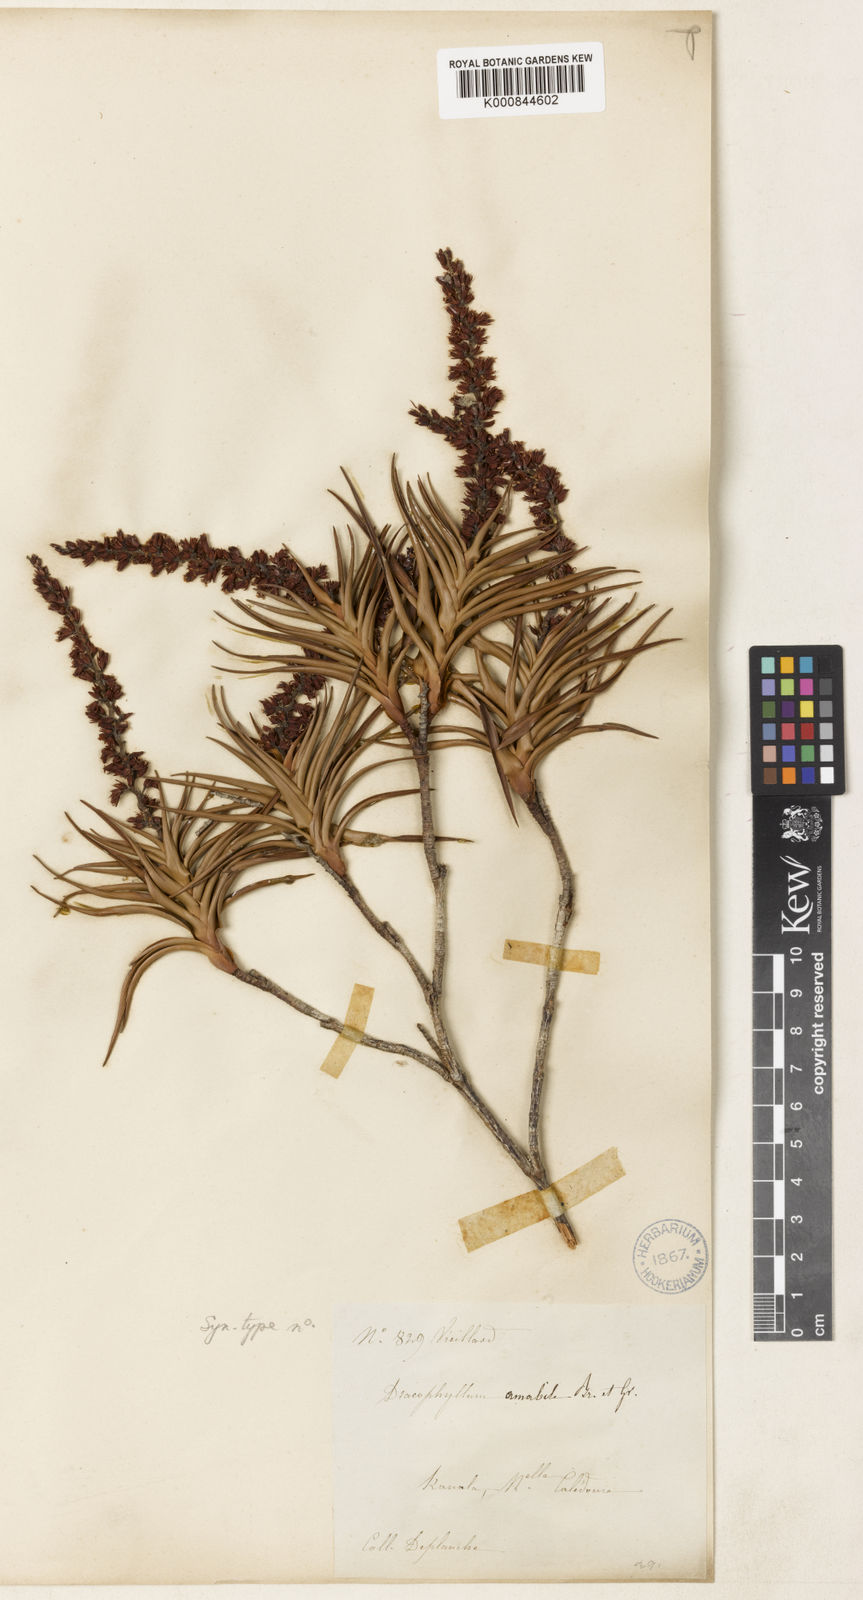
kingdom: Plantae
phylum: Tracheophyta
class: Magnoliopsida
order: Ericales
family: Ericaceae
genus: Dracophyllum
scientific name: Dracophyllum ramosum
